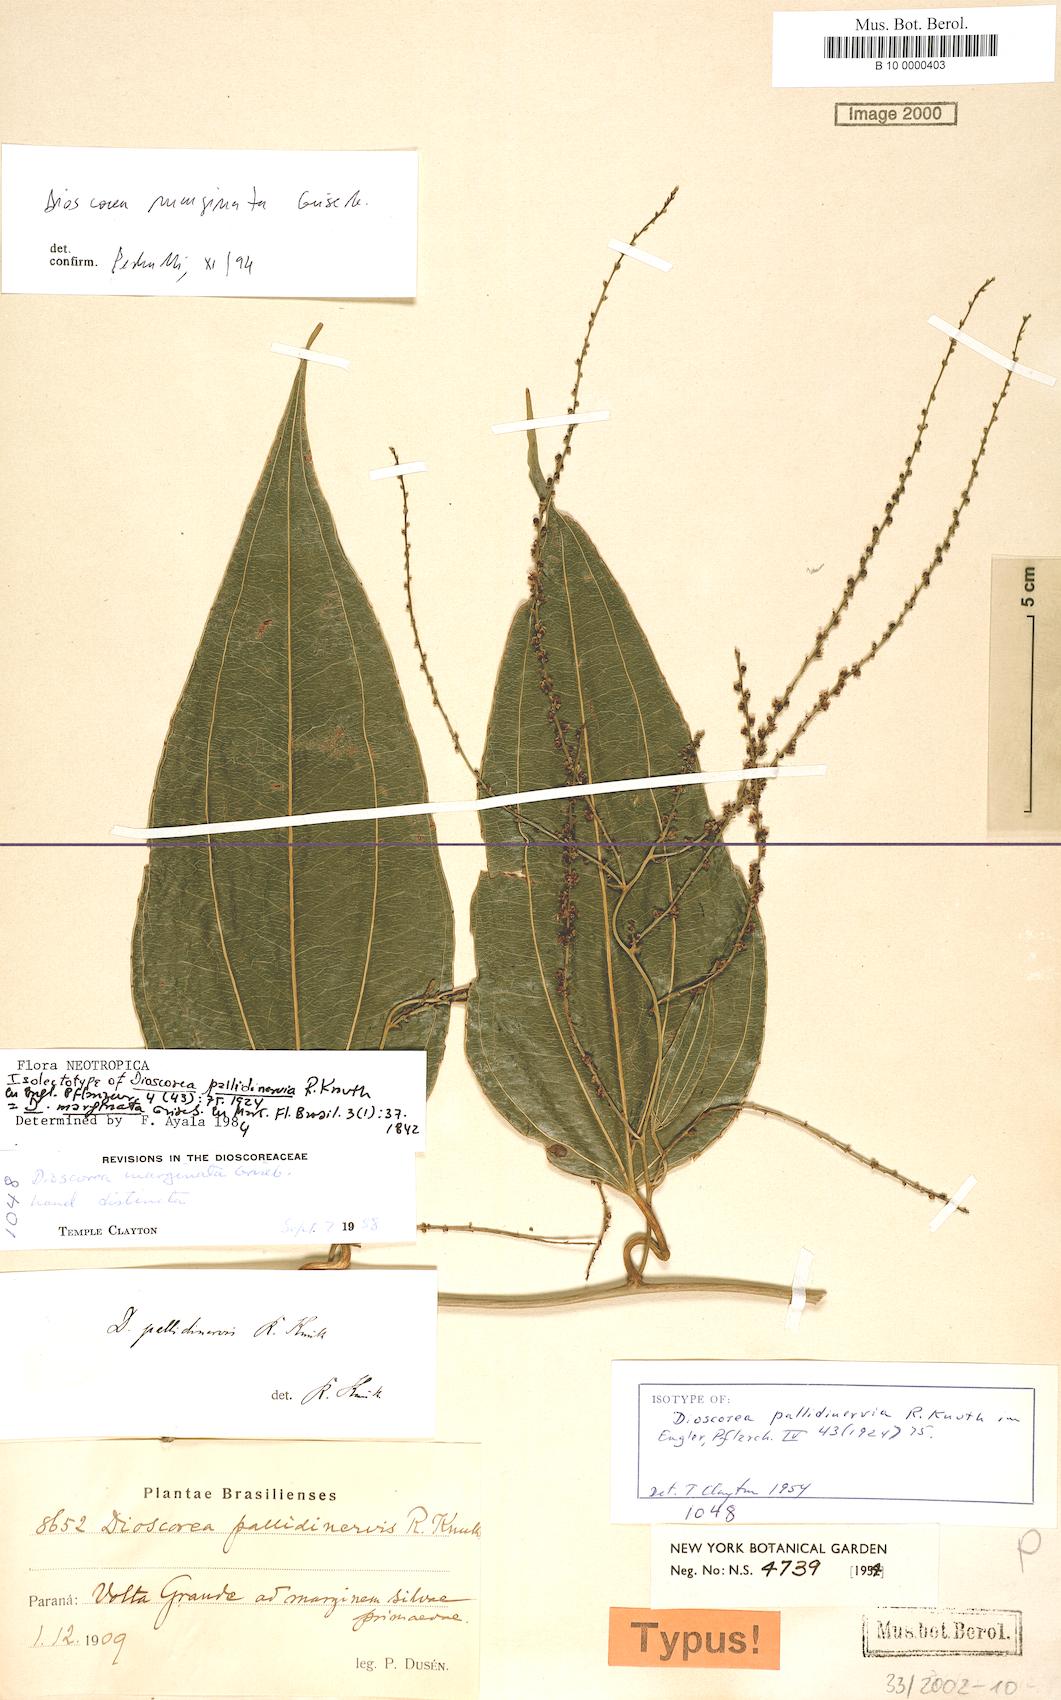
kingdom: Plantae
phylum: Tracheophyta
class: Liliopsida
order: Dioscoreales
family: Dioscoreaceae
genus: Dioscorea
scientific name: Dioscorea marginata
